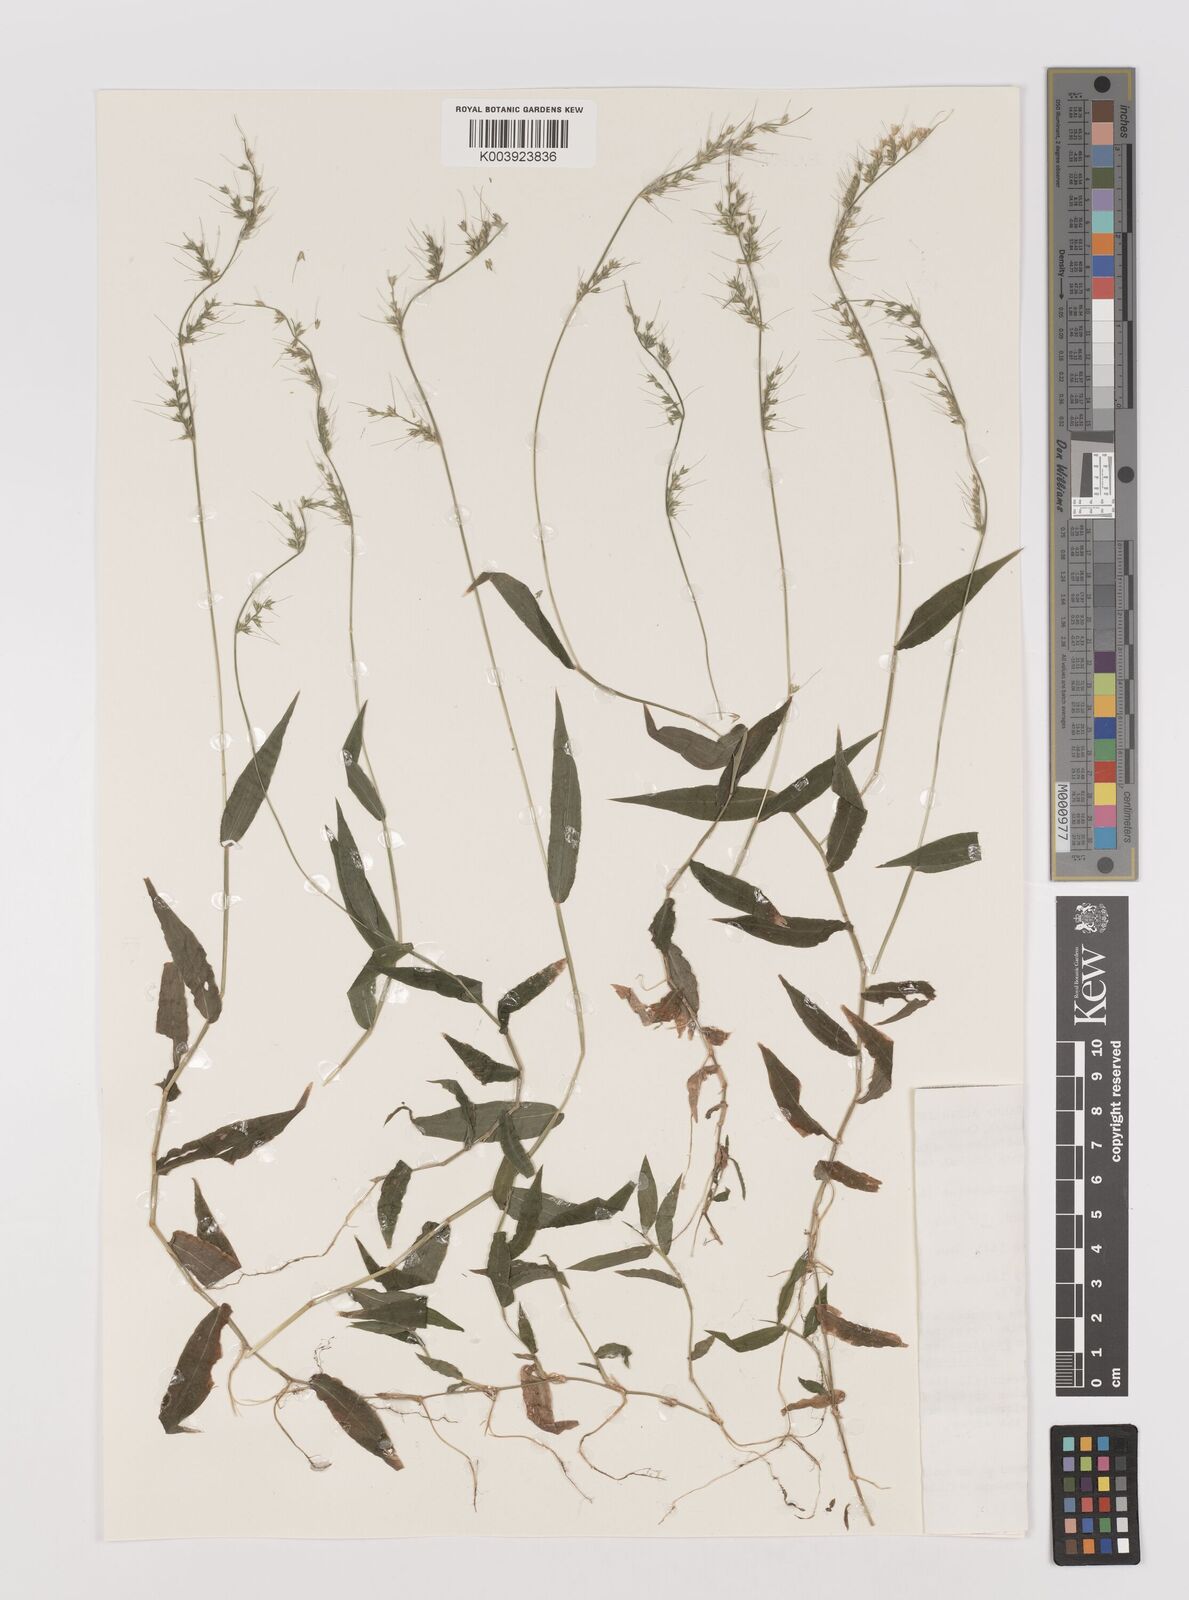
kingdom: Plantae
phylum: Tracheophyta
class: Liliopsida
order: Poales
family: Poaceae
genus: Oplismenus
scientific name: Oplismenus compositus
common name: Running mountain grass
